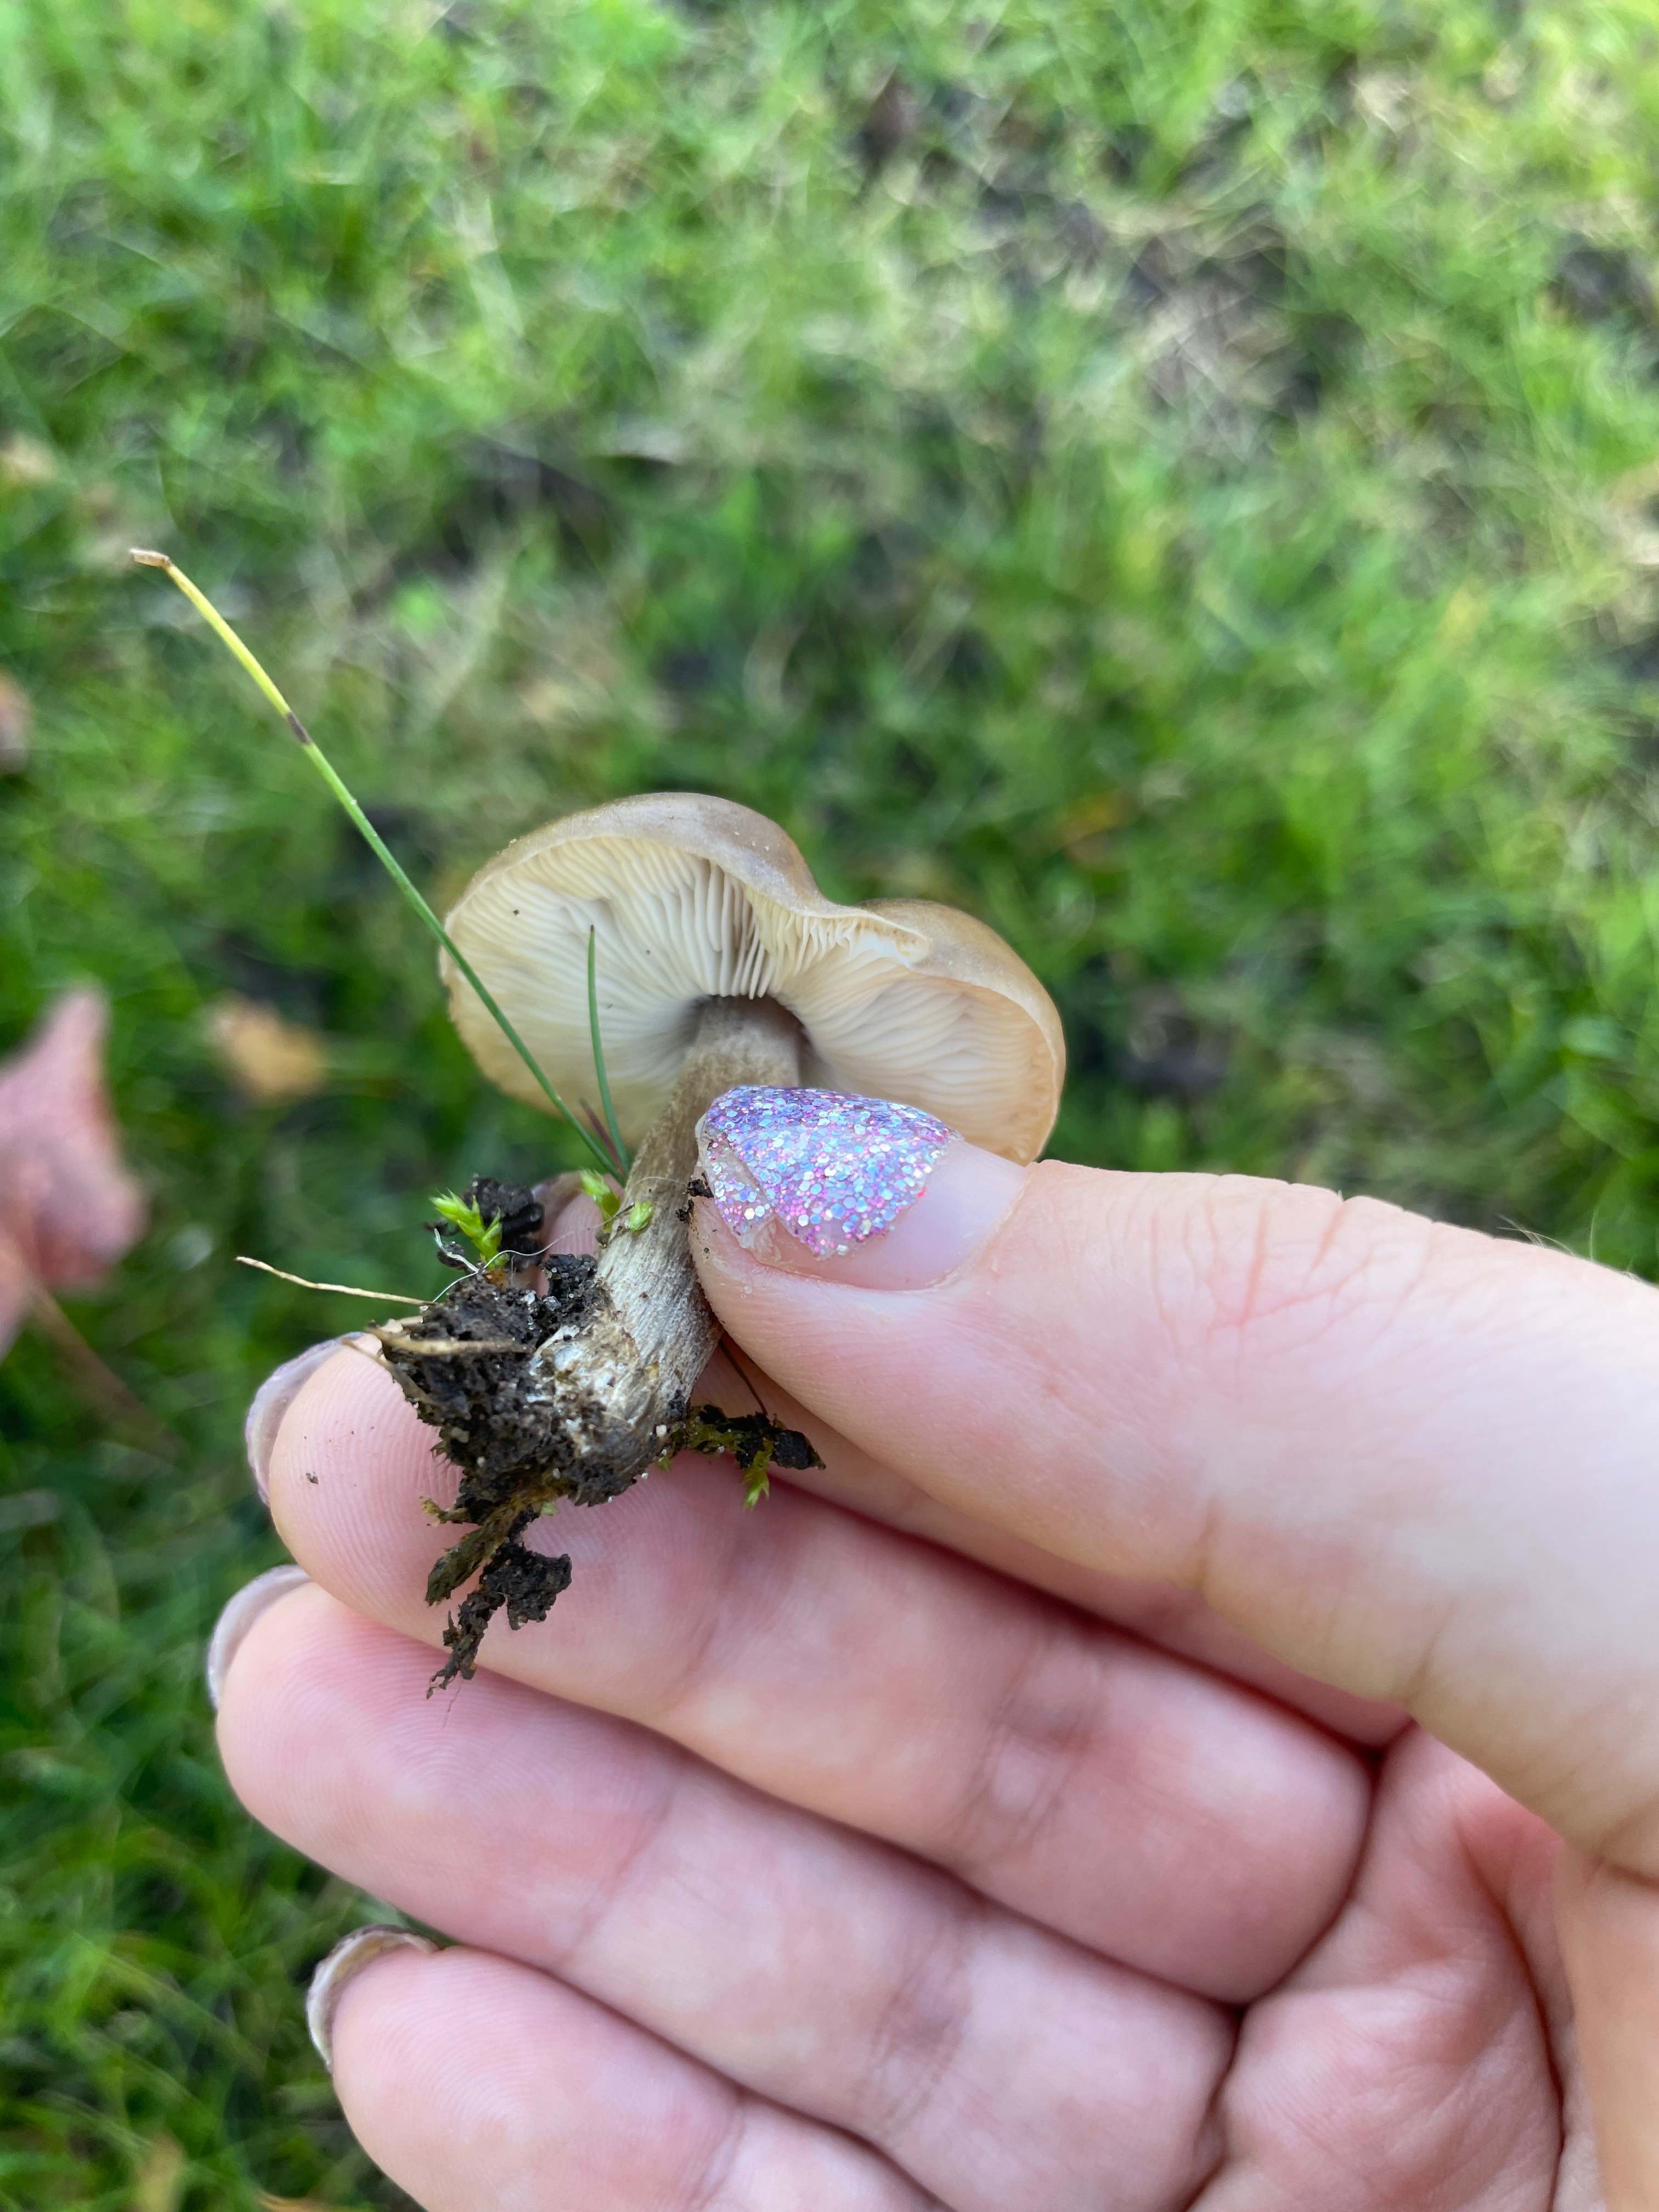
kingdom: Fungi
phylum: Basidiomycota
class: Agaricomycetes
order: Agaricales
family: Tricholomataceae
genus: Melanoleuca
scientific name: Melanoleuca
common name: munkehat
